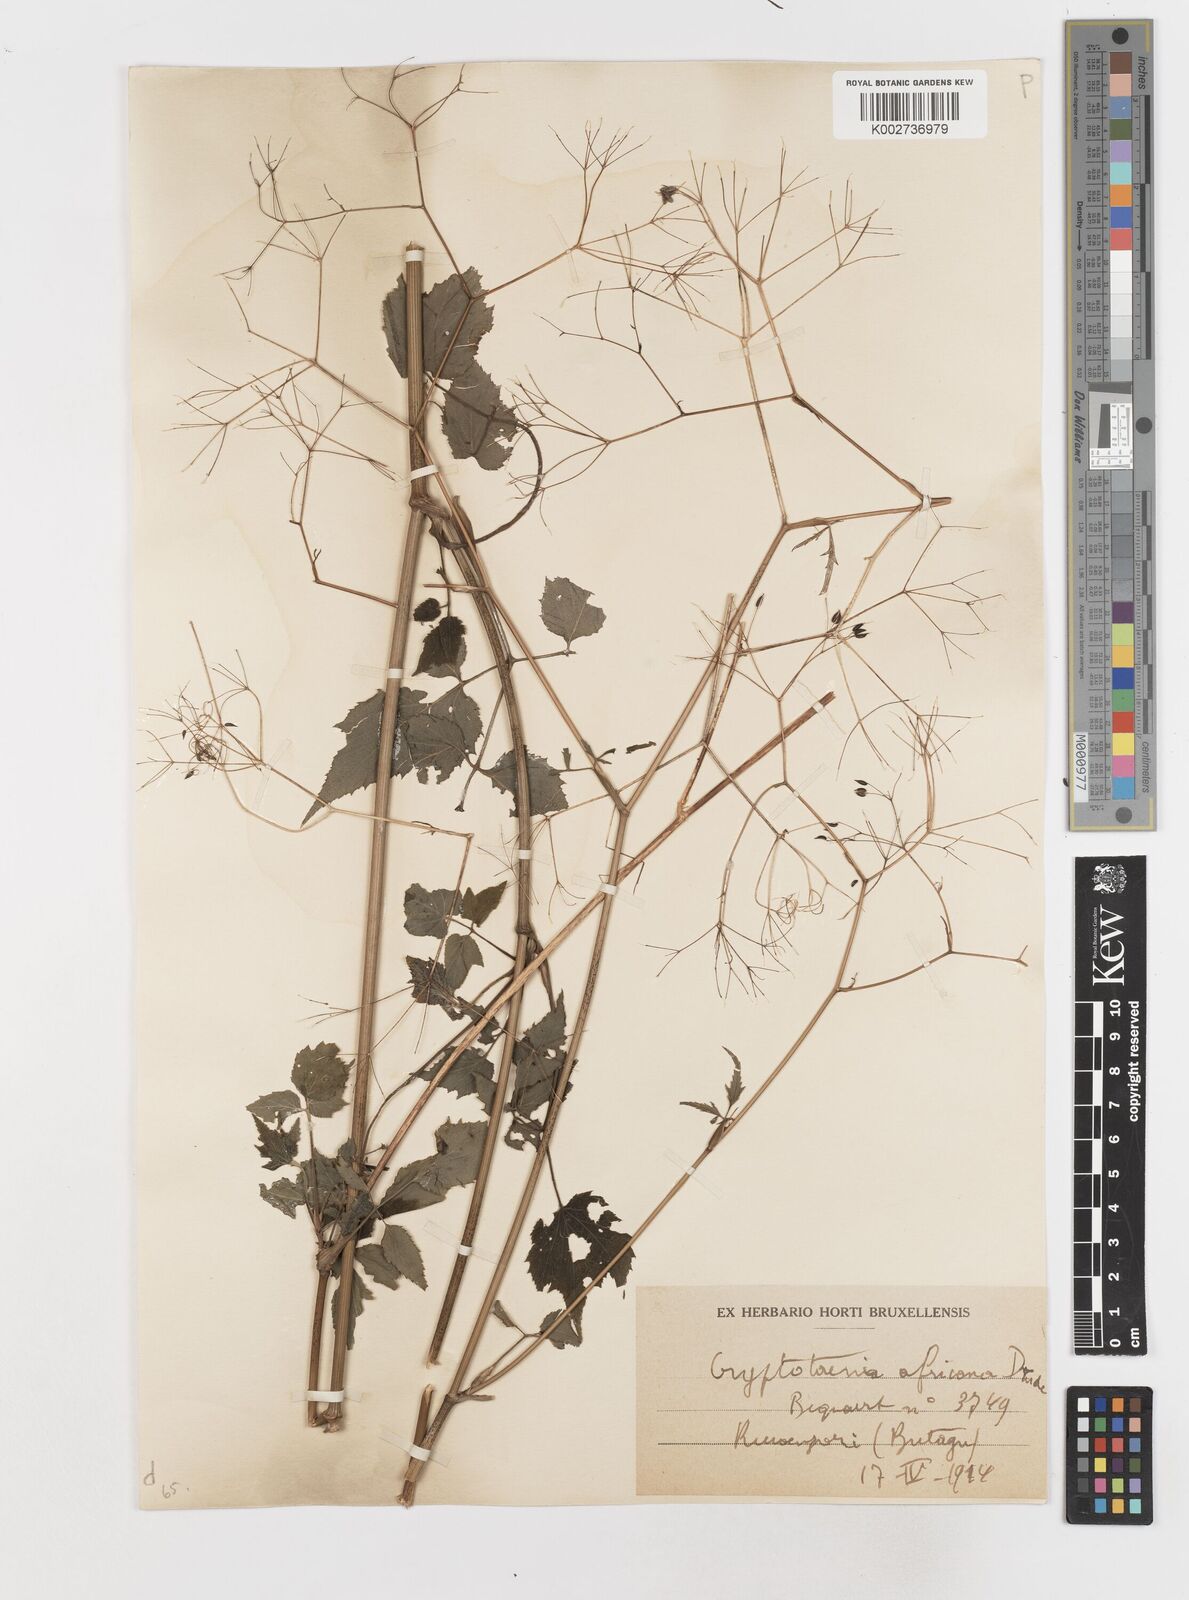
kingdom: Plantae
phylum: Tracheophyta
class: Magnoliopsida
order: Apiales
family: Apiaceae
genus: Cryptotaenia
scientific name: Cryptotaenia africana
